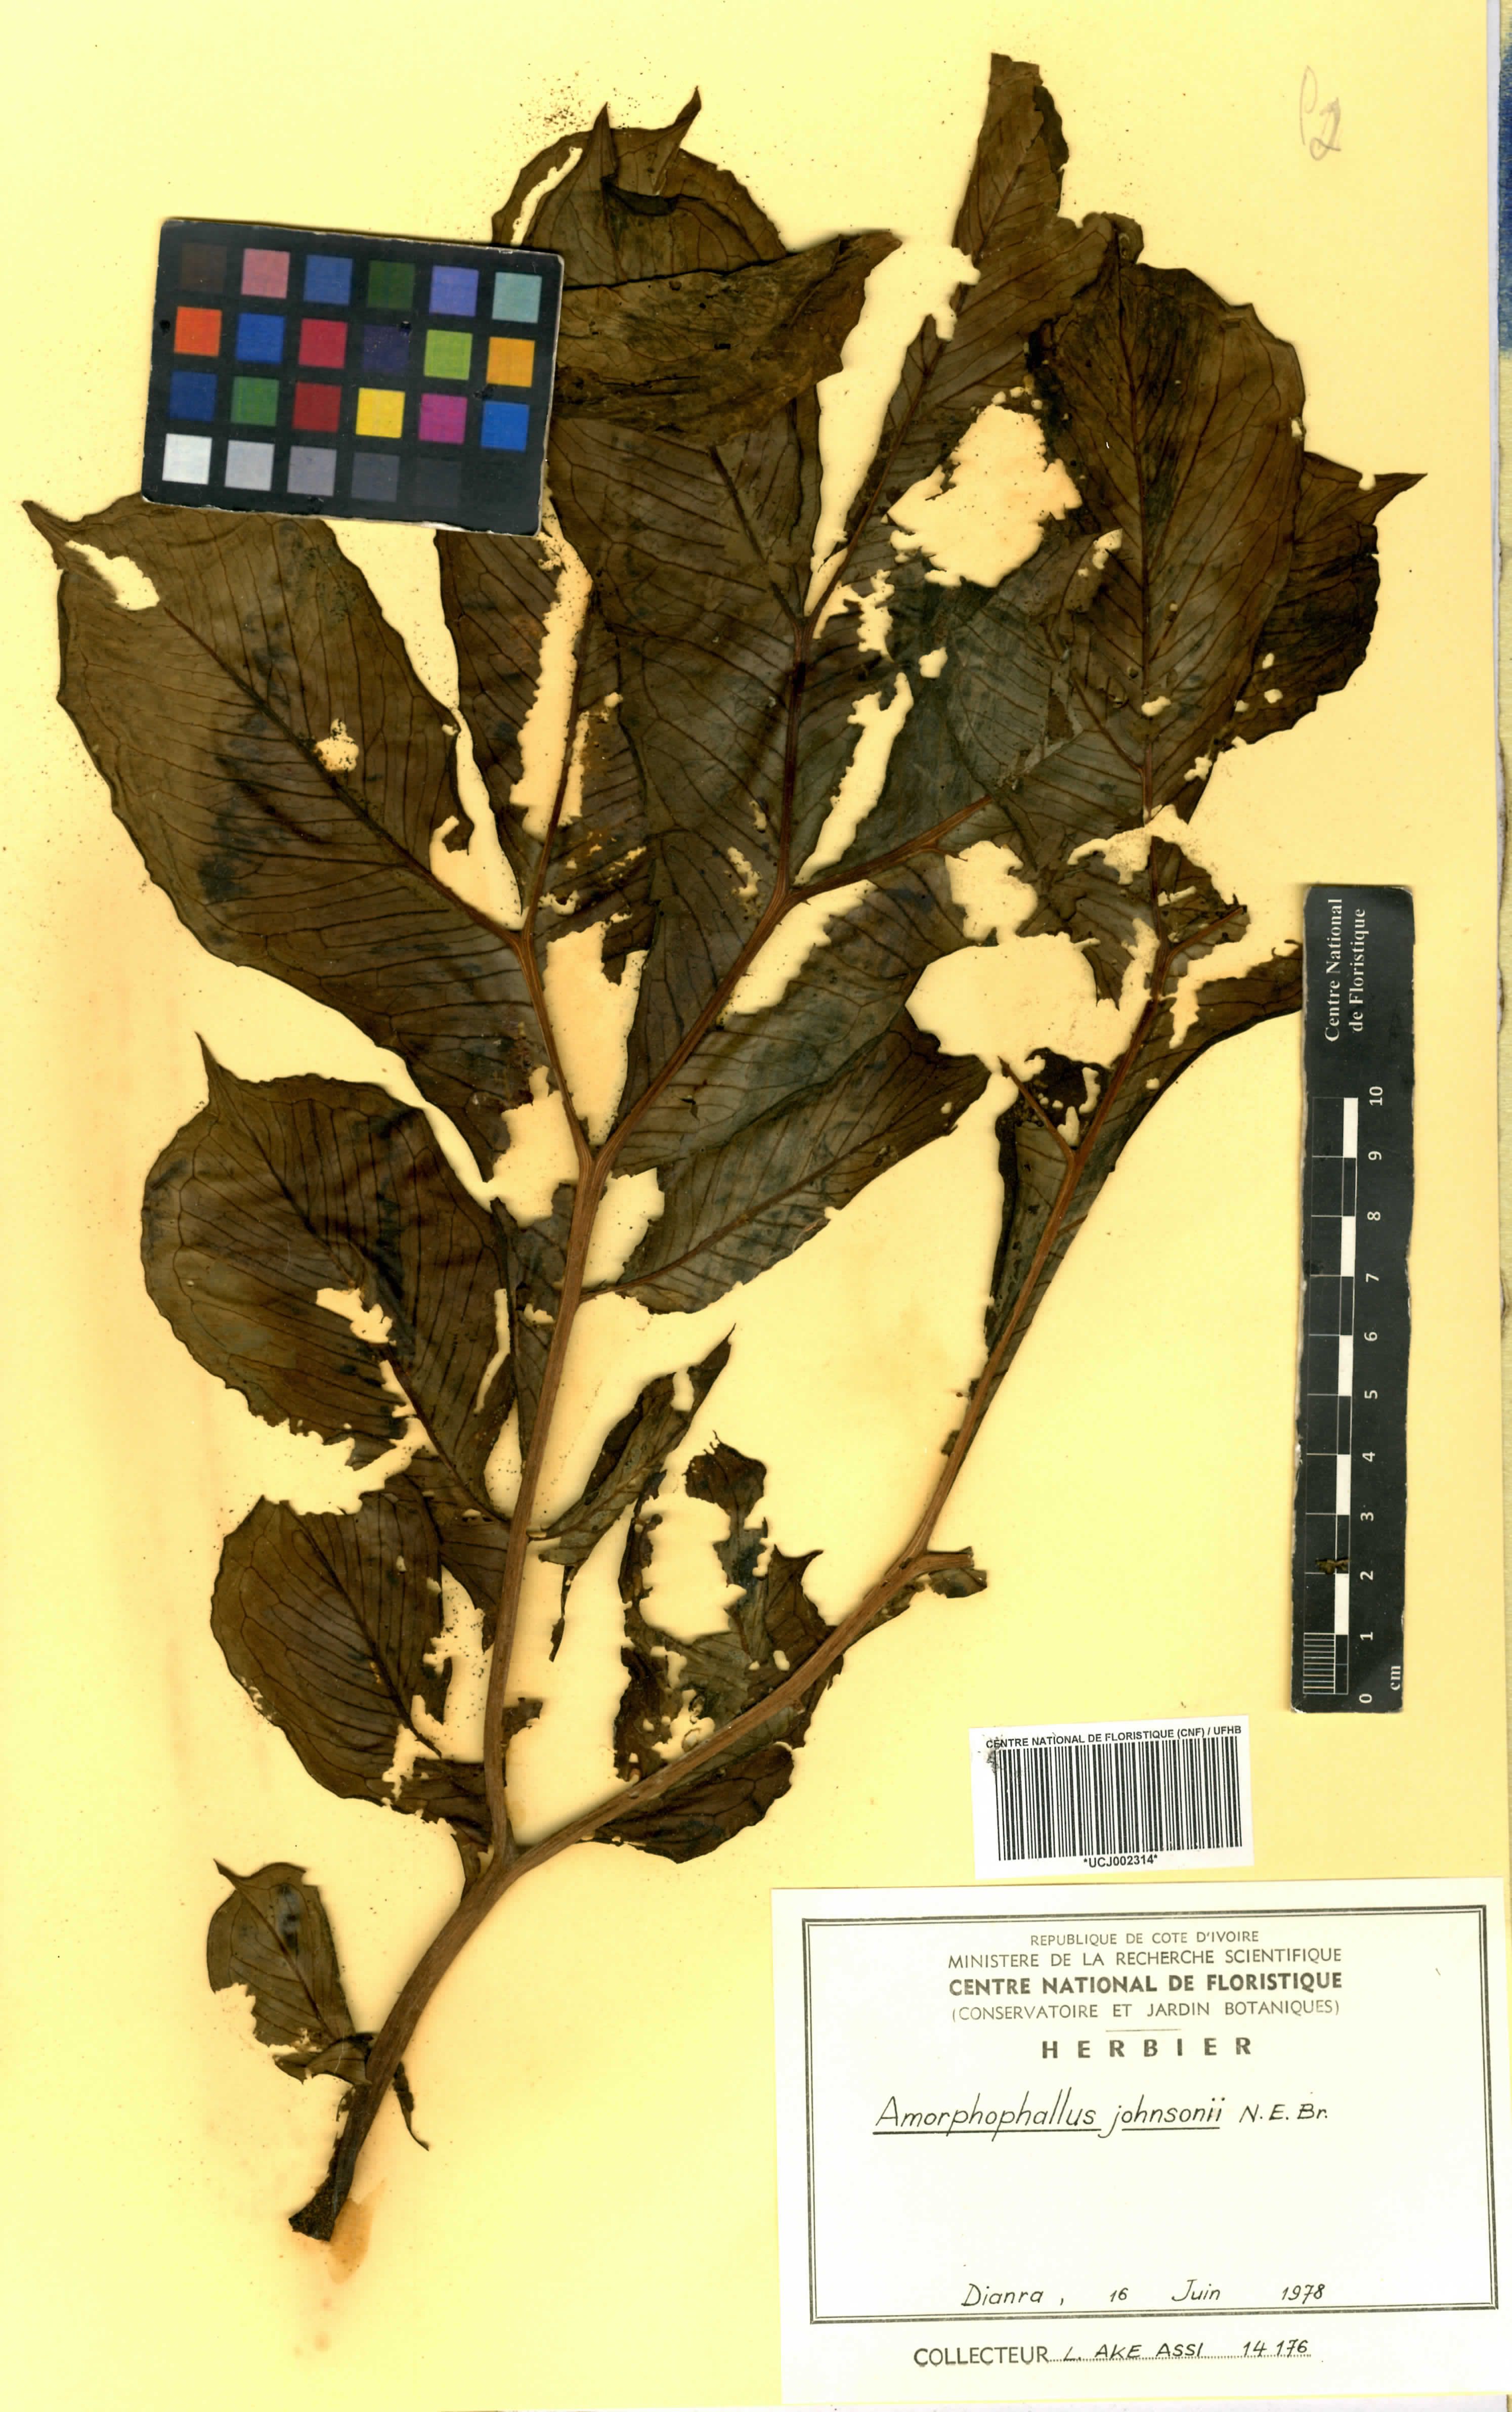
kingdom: Plantae
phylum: Tracheophyta
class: Liliopsida
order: Alismatales
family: Araceae
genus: Amorphophallus
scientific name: Amorphophallus johnsonii
